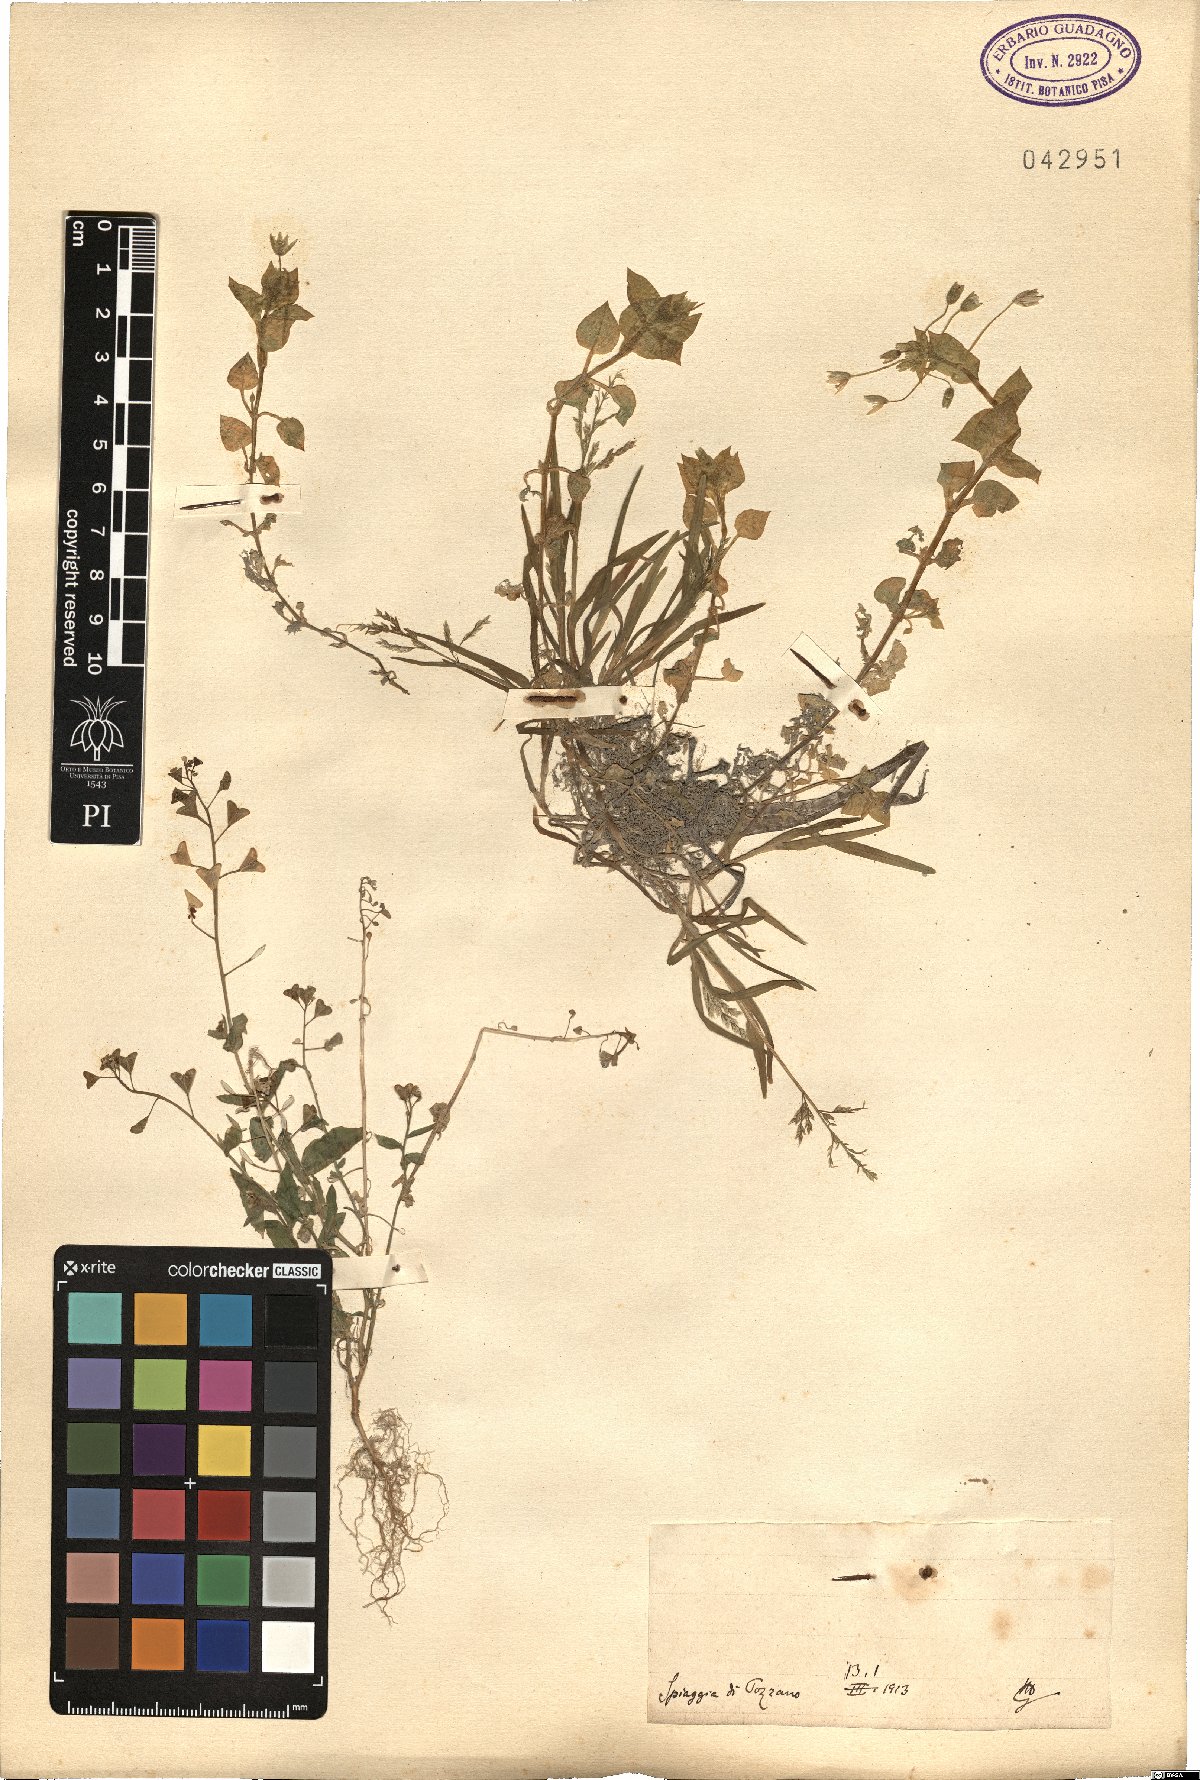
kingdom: Plantae
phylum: Tracheophyta
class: Magnoliopsida
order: Caryophyllales
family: Caryophyllaceae
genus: Stellaria
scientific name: Stellaria
